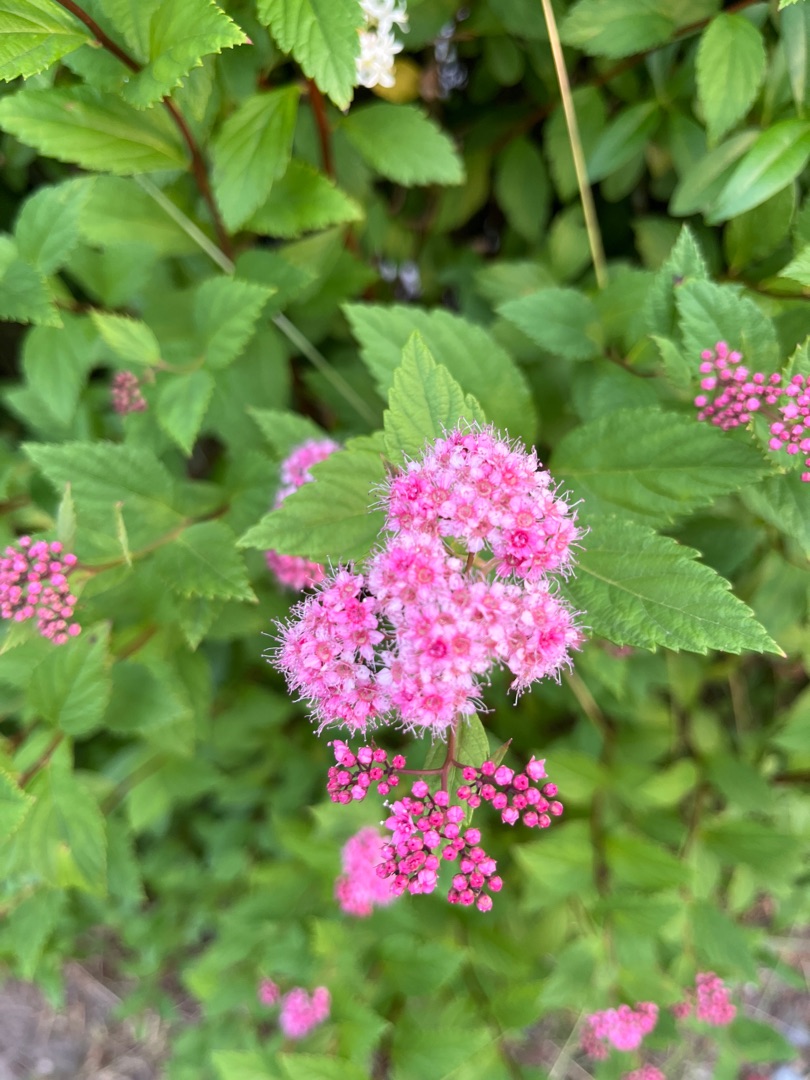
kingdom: Plantae
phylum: Tracheophyta
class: Magnoliopsida
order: Rosales
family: Rosaceae
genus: Spiraea
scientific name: Spiraea japonica
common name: Rosen-spiræa
